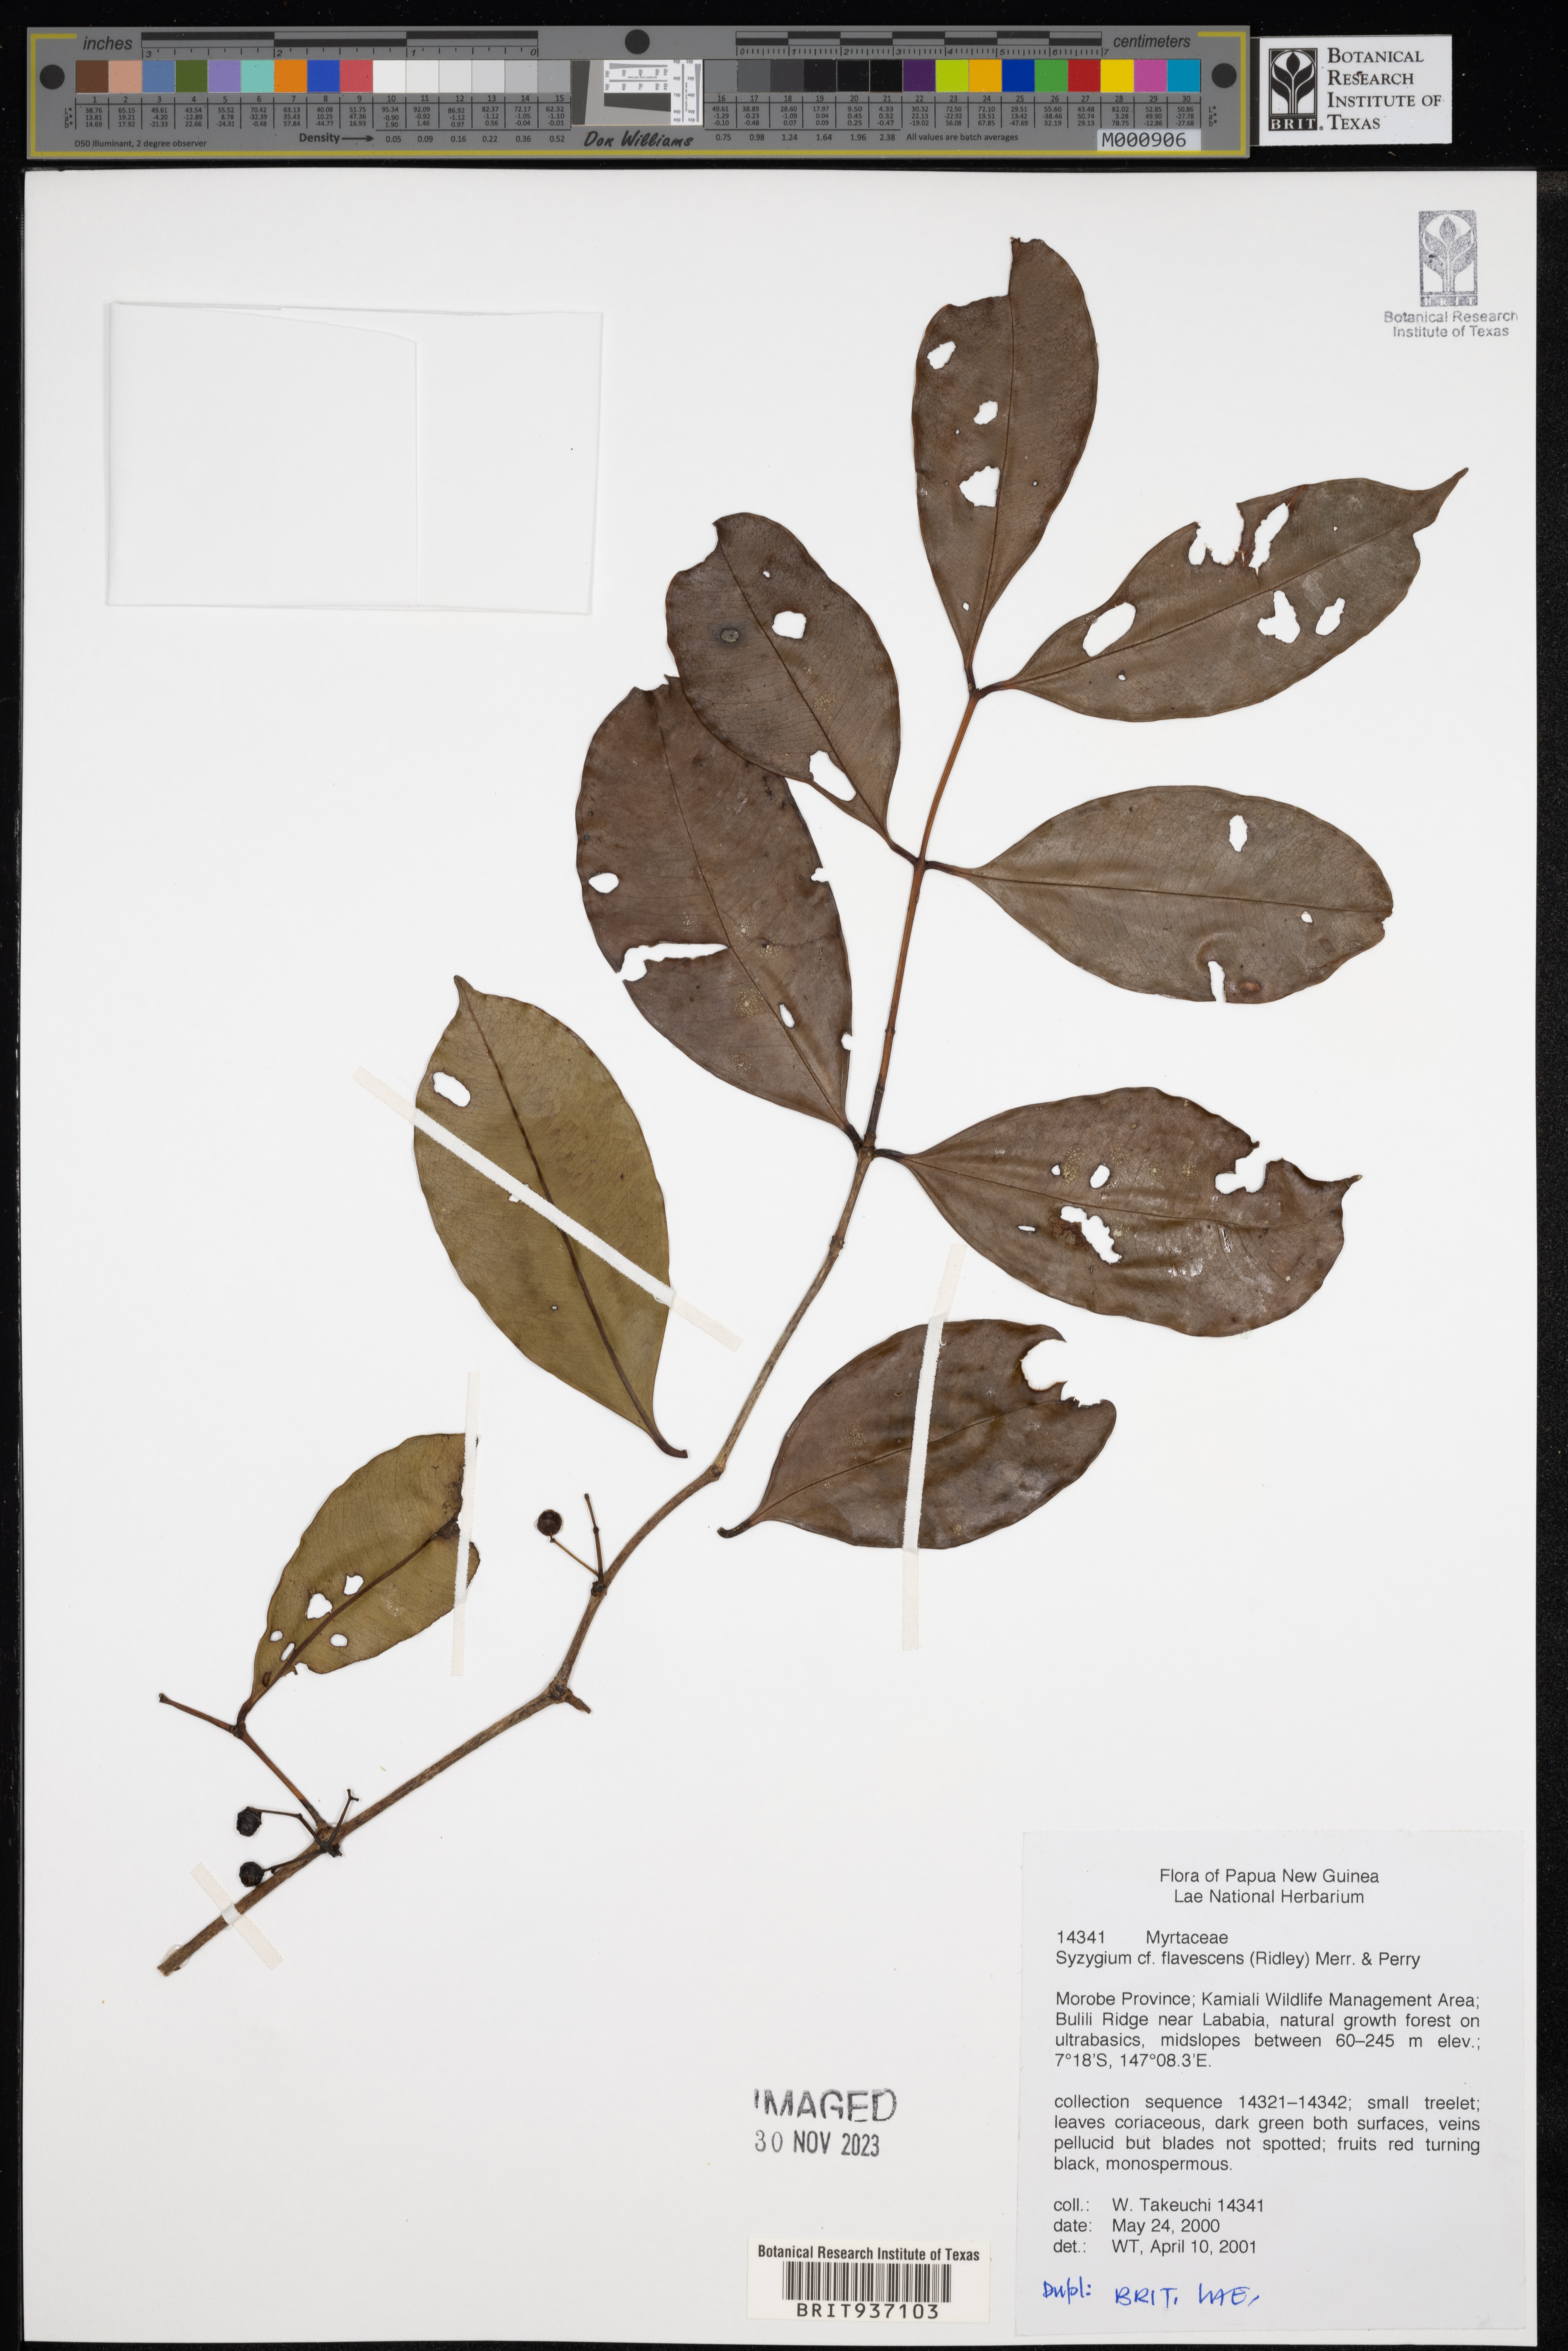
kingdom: Plantae
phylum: Tracheophyta
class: Magnoliopsida
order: Myrtales
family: Myrtaceae
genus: Syzygium
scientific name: Syzygium
